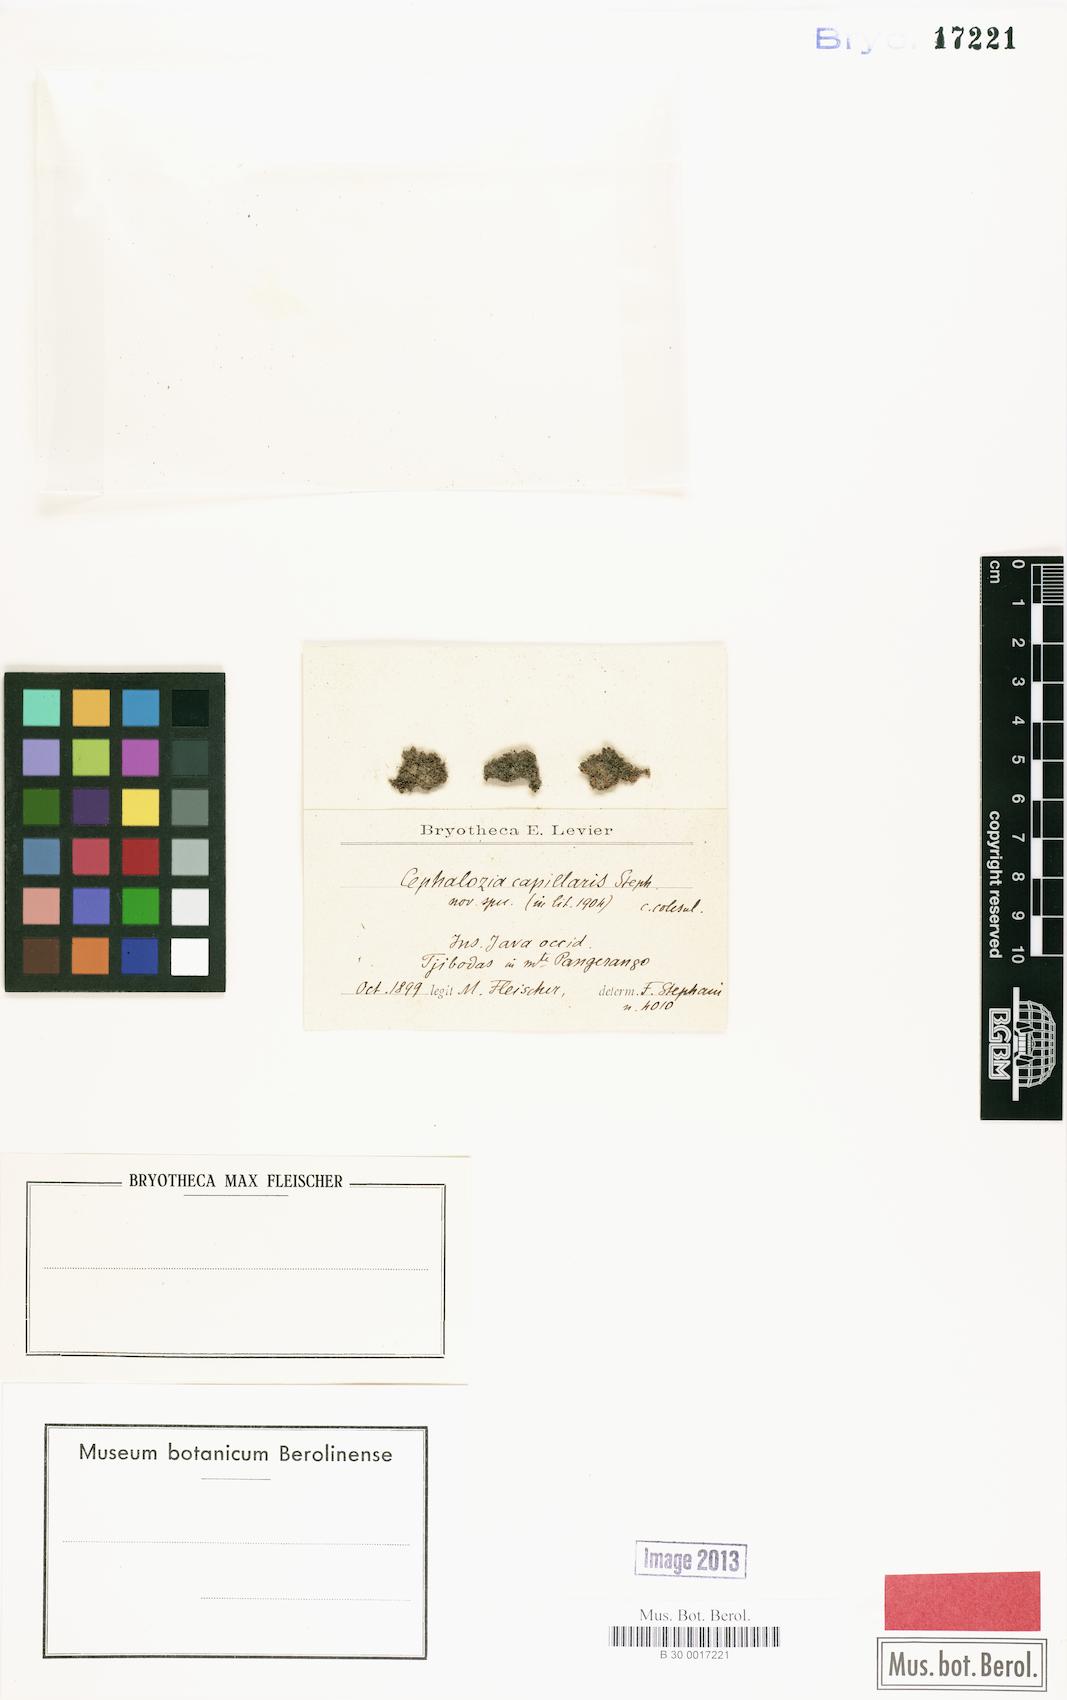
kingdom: Plantae
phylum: Marchantiophyta
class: Jungermanniopsida
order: Jungermanniales
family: Cephaloziellaceae
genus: Cephaloziella
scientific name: Cephaloziella capillaris
